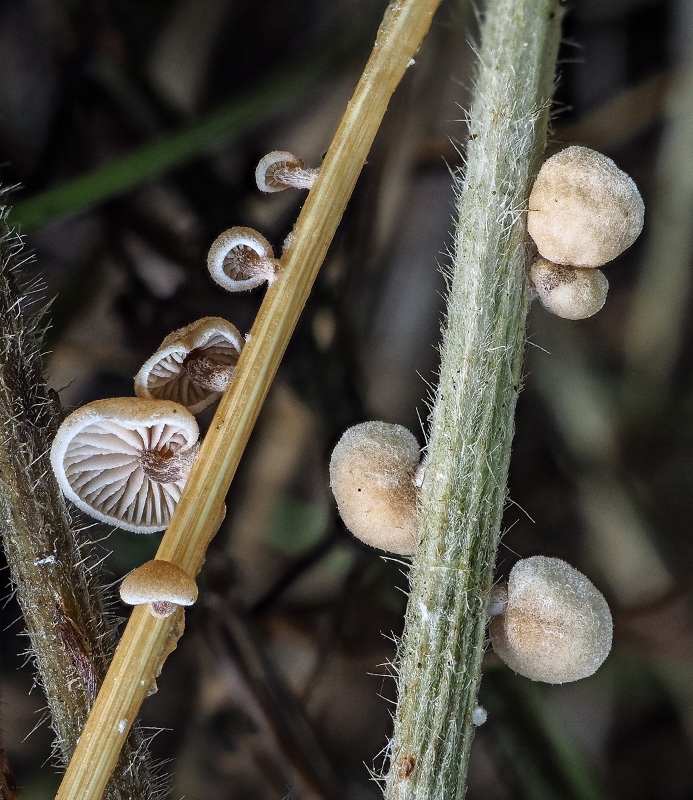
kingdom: Fungi
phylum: Basidiomycota
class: Agaricomycetes
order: Agaricales
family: Strophariaceae
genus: Deconica
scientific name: Deconica phillipsii
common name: almindelig stråhat
